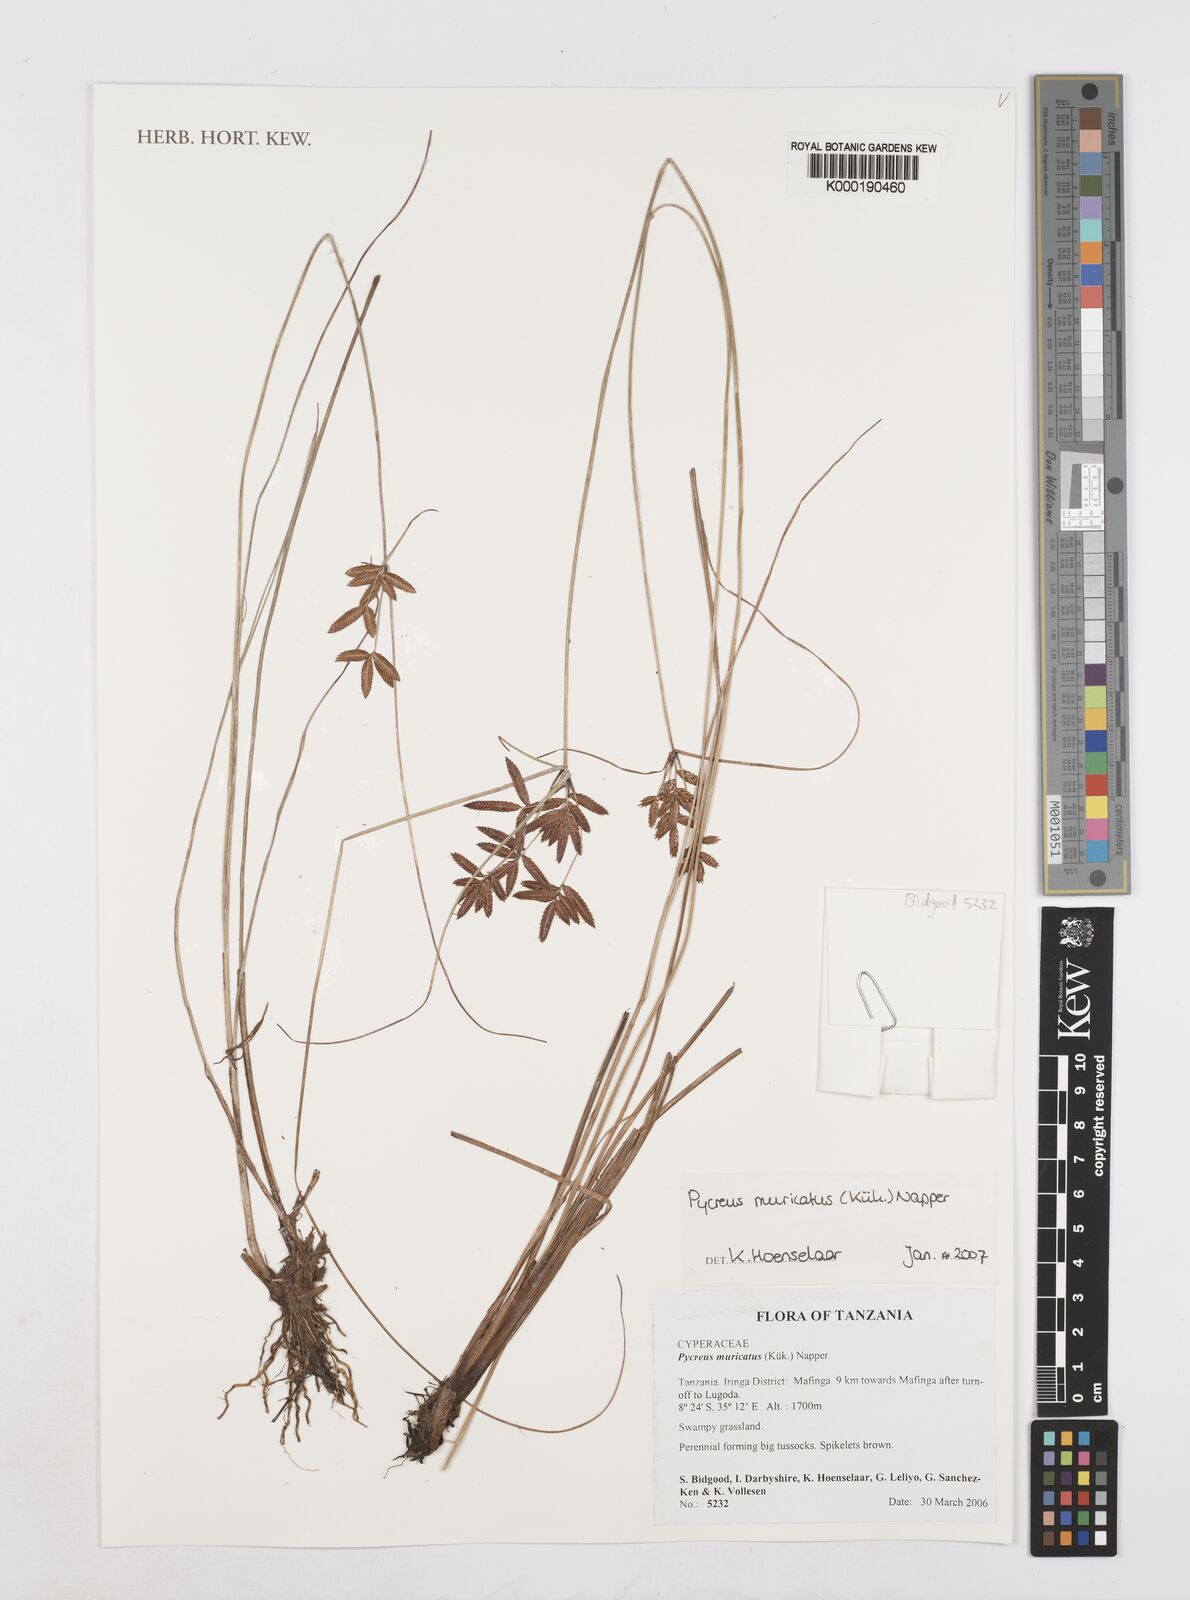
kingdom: Plantae
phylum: Tracheophyta
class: Liliopsida
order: Poales
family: Cyperaceae
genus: Cyperus
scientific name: Cyperus
